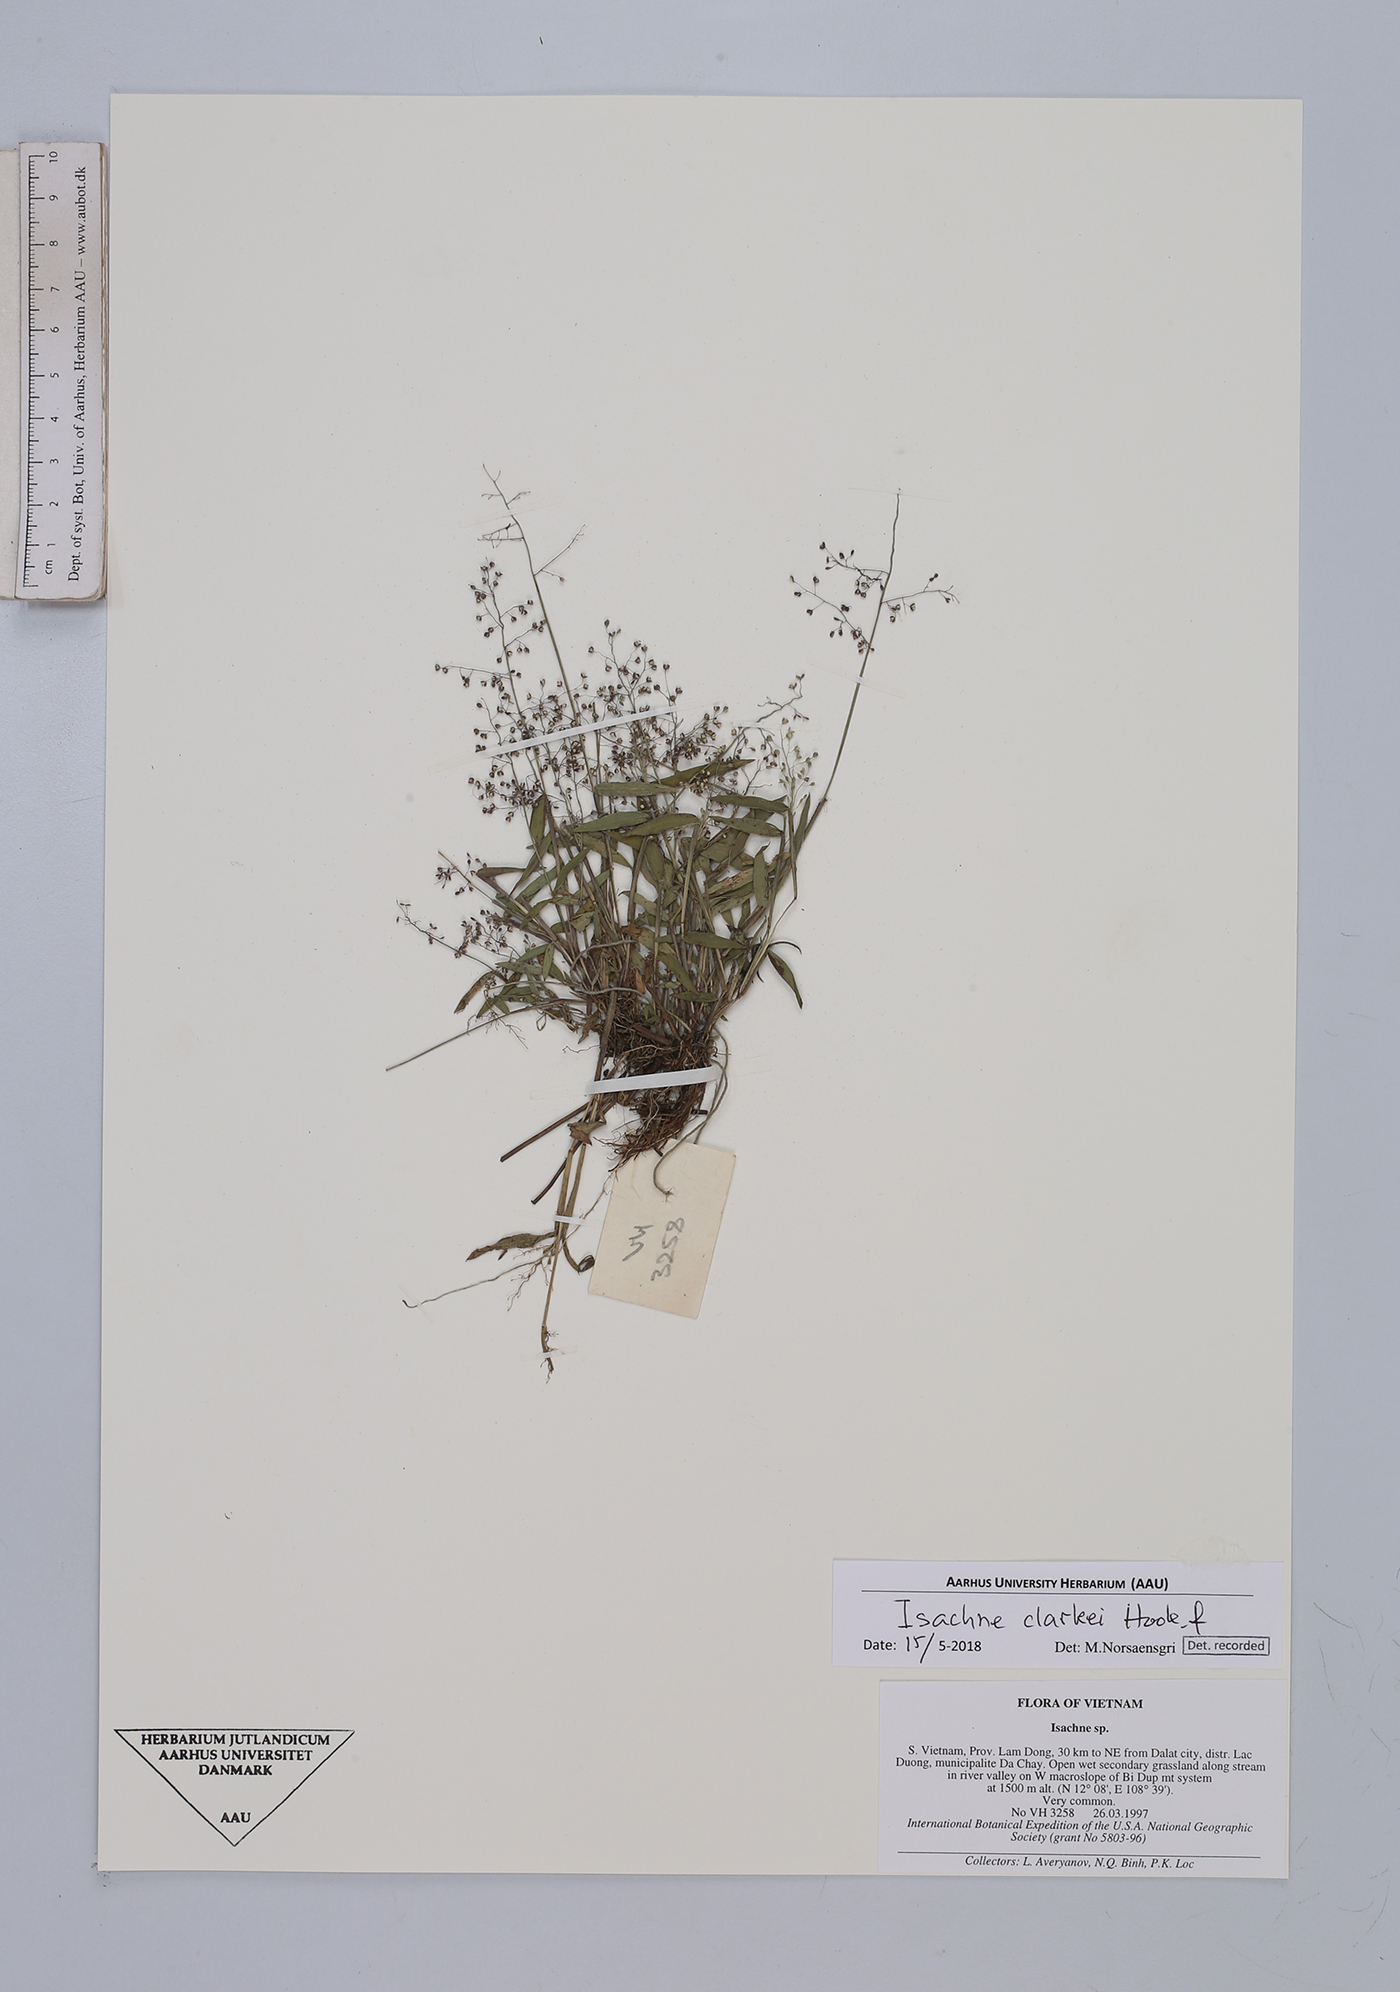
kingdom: Plantae
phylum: Tracheophyta
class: Liliopsida
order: Poales
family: Poaceae
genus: Isachne
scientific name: Isachne clarkei
